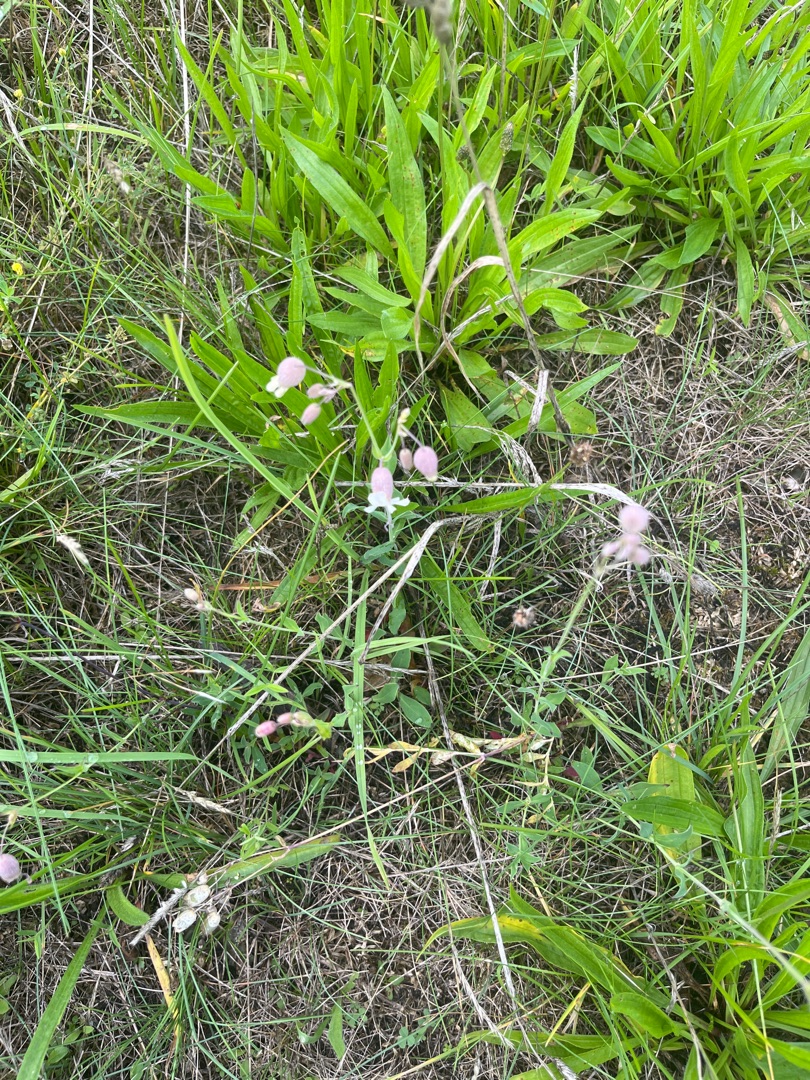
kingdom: Plantae
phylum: Tracheophyta
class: Magnoliopsida
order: Caryophyllales
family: Caryophyllaceae
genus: Silene
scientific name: Silene vulgaris
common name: Blæresmælde
